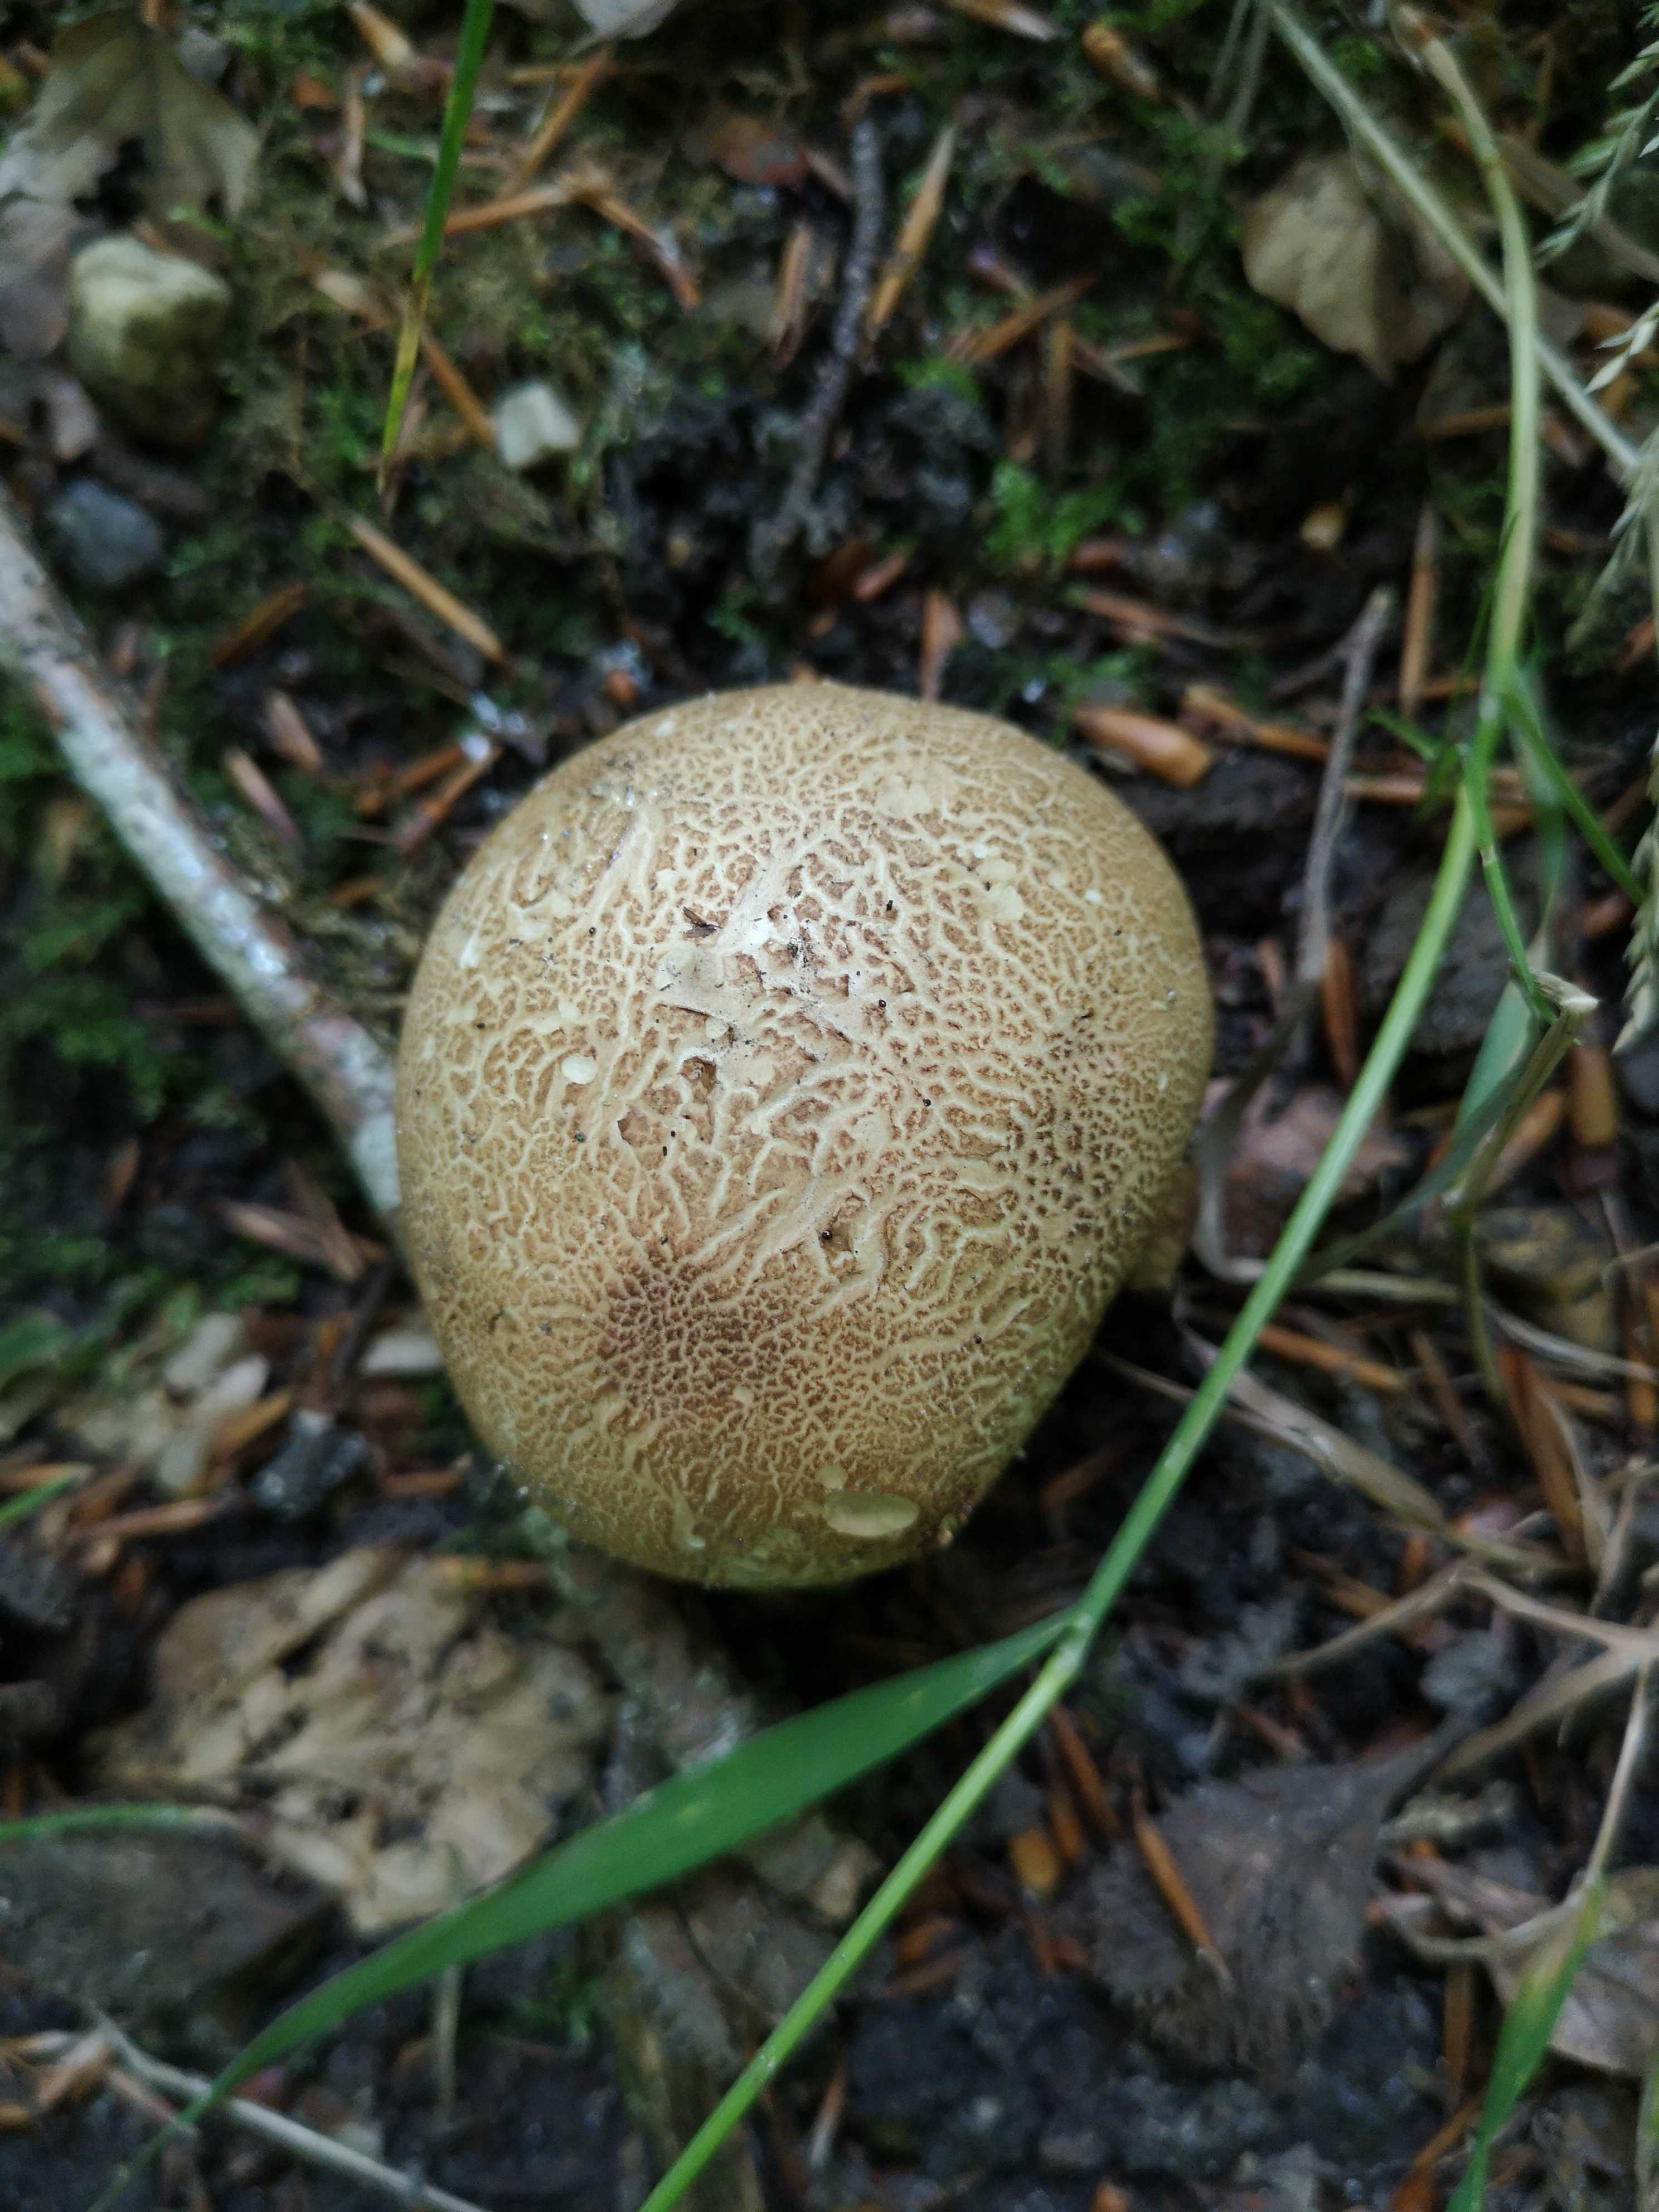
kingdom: Fungi
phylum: Basidiomycota
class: Agaricomycetes
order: Boletales
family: Sclerodermataceae
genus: Scleroderma
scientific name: Scleroderma citrinum
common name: almindelig bruskbold
